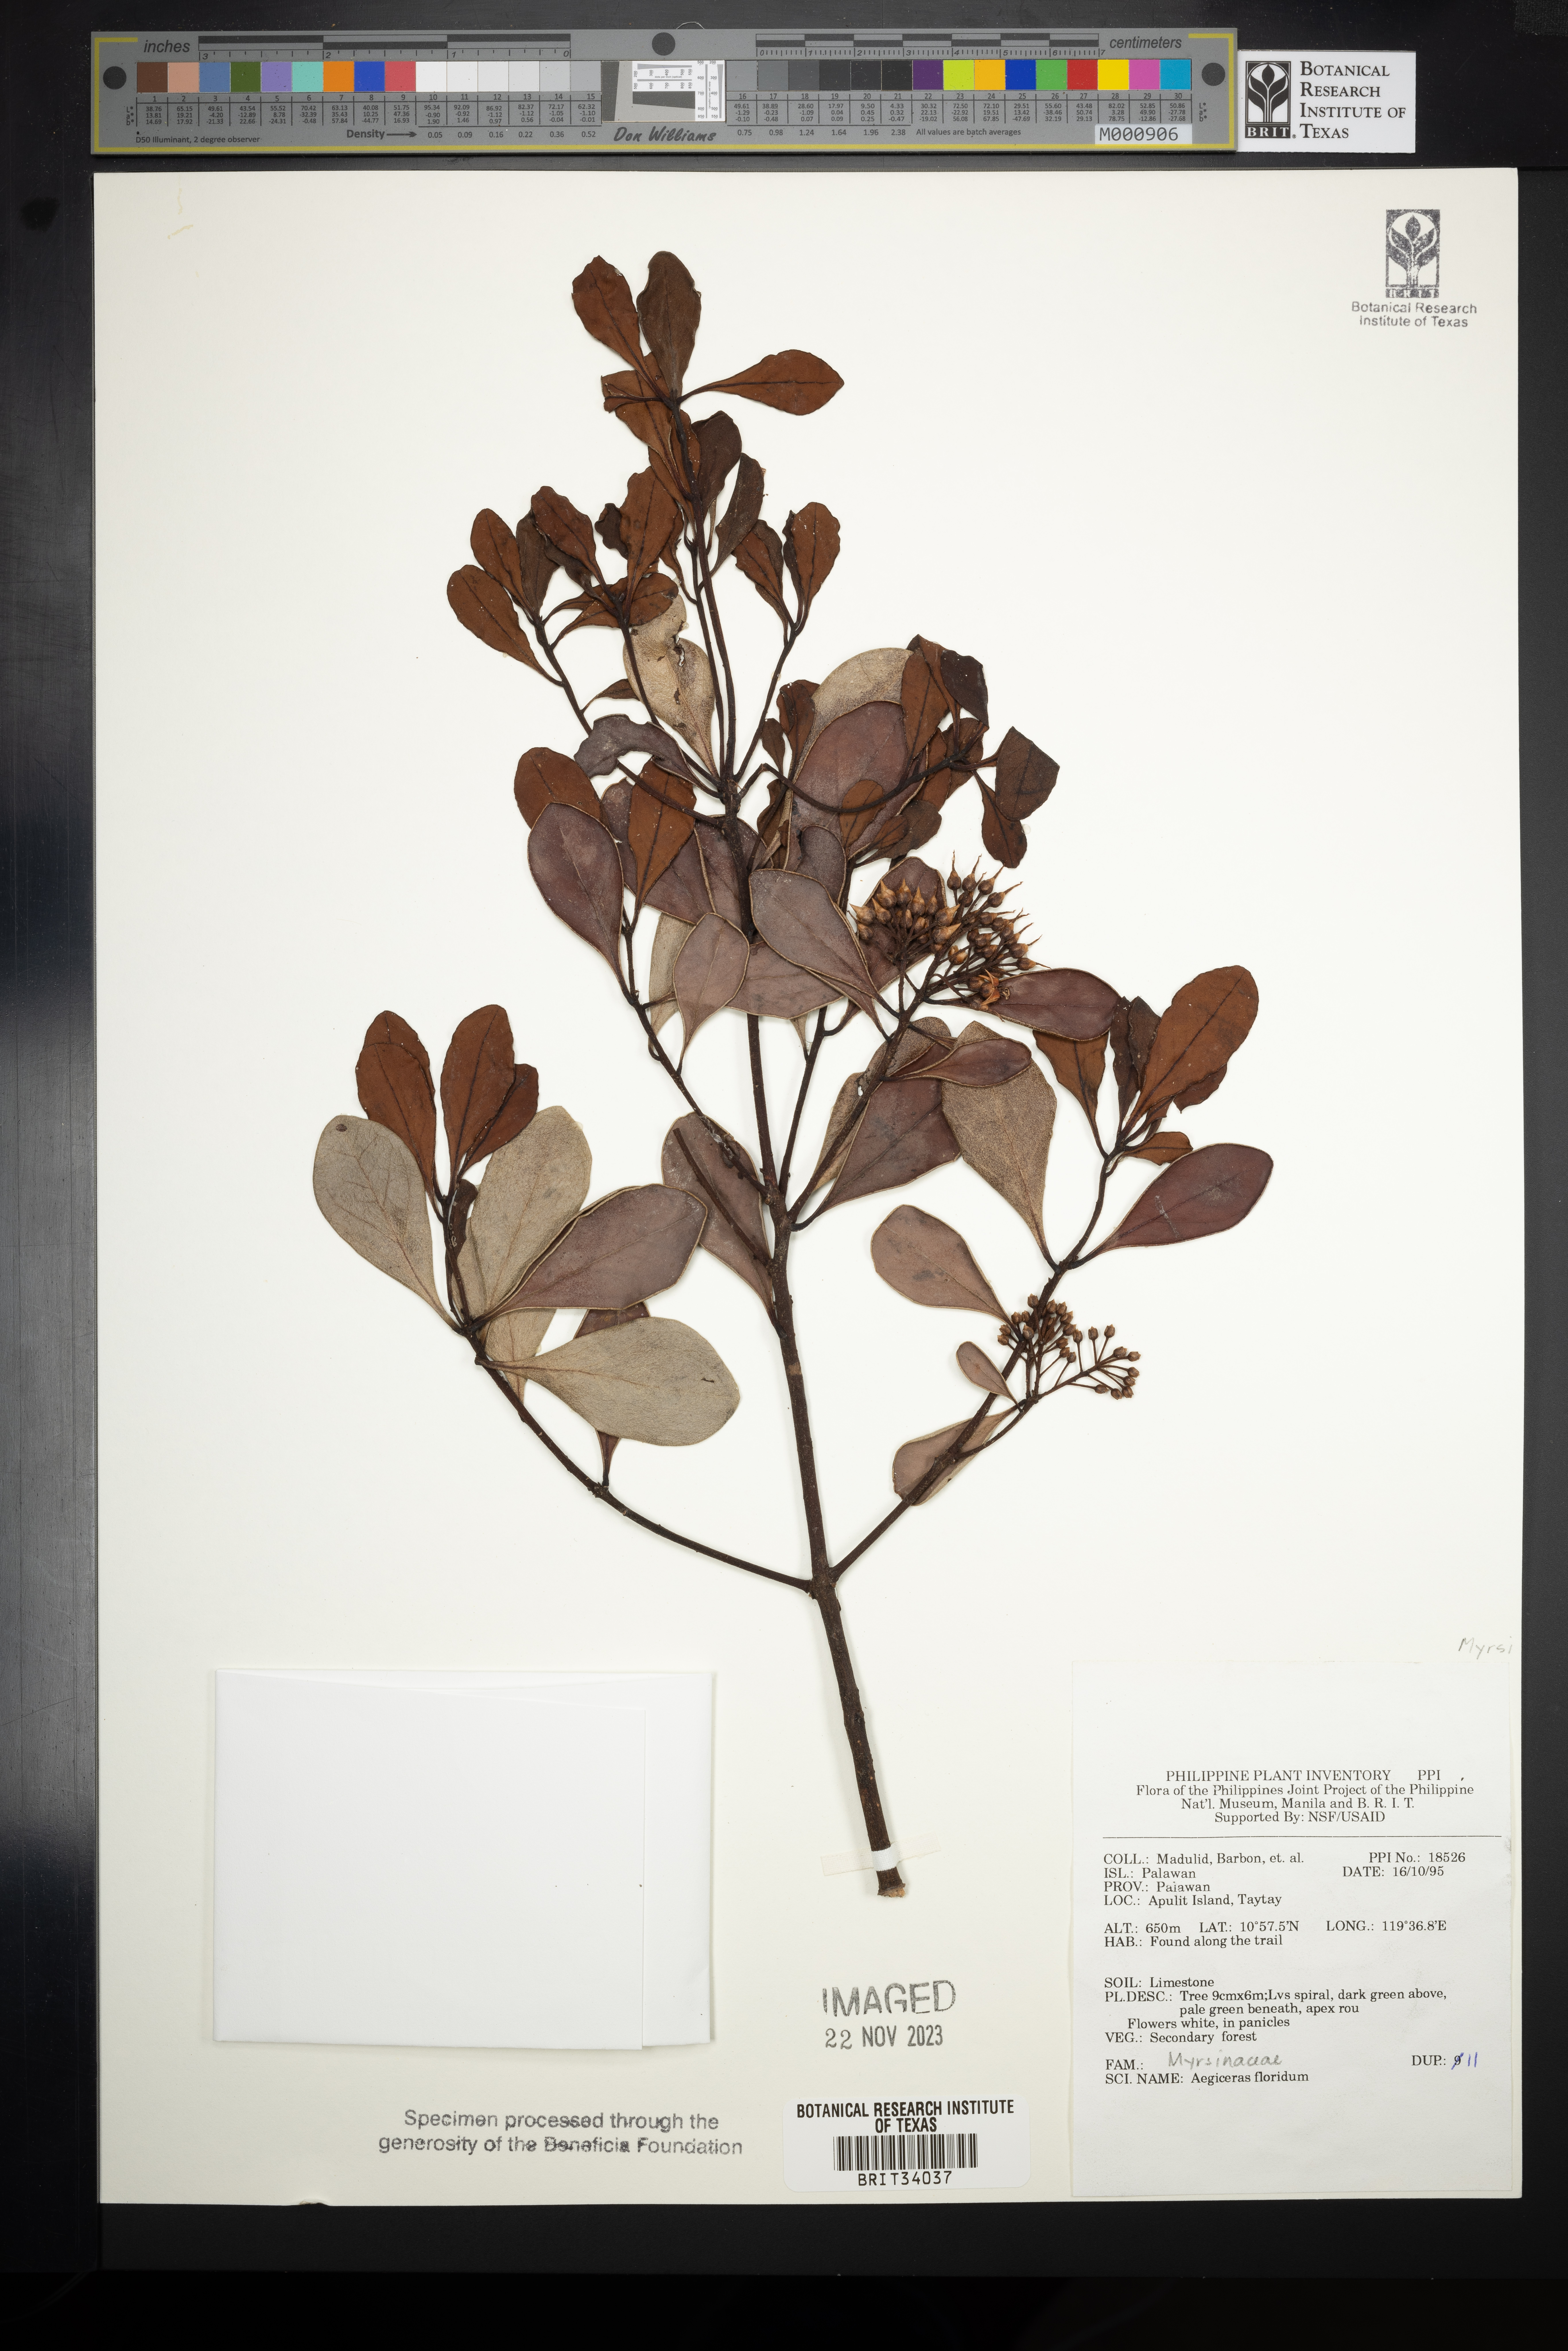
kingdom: Plantae
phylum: Tracheophyta
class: Magnoliopsida
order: Ericales
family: Primulaceae
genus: Aegiceras
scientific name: Aegiceras floridum
